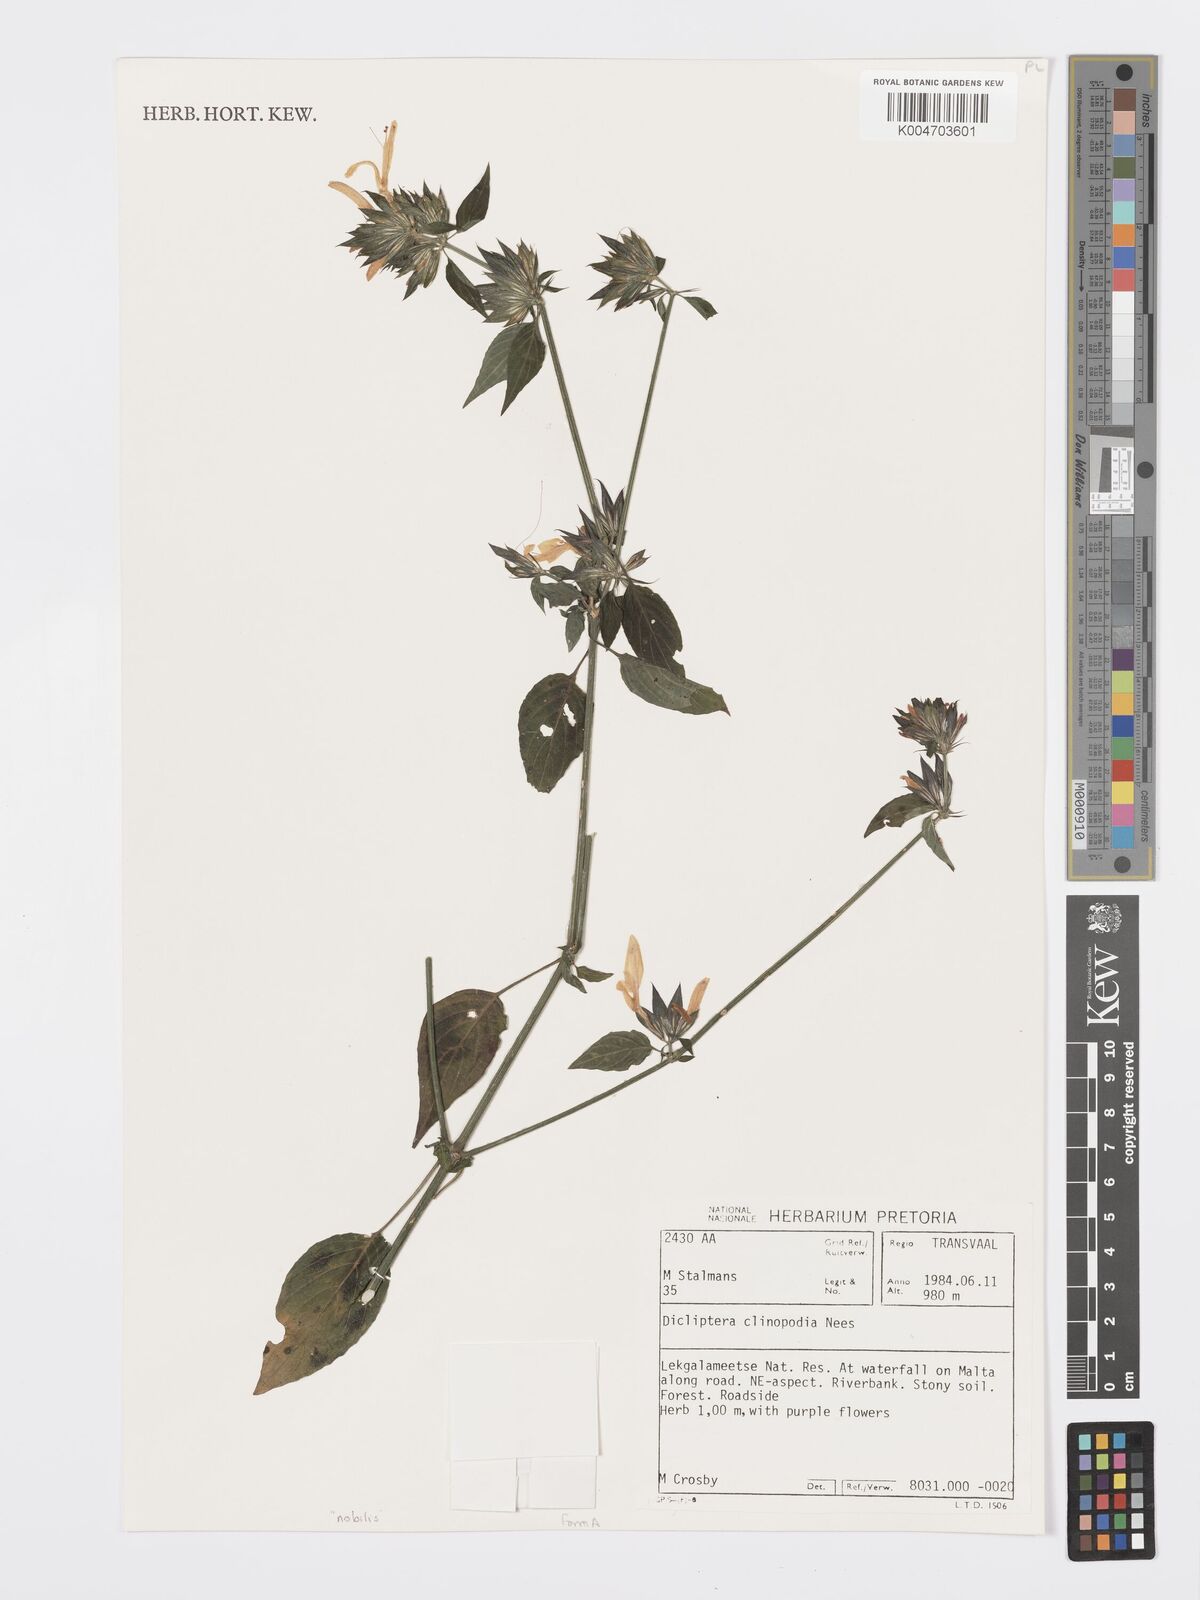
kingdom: Plantae
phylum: Tracheophyta
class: Magnoliopsida
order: Lamiales
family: Acanthaceae
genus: Dicliptera
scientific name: Dicliptera clinopodia
